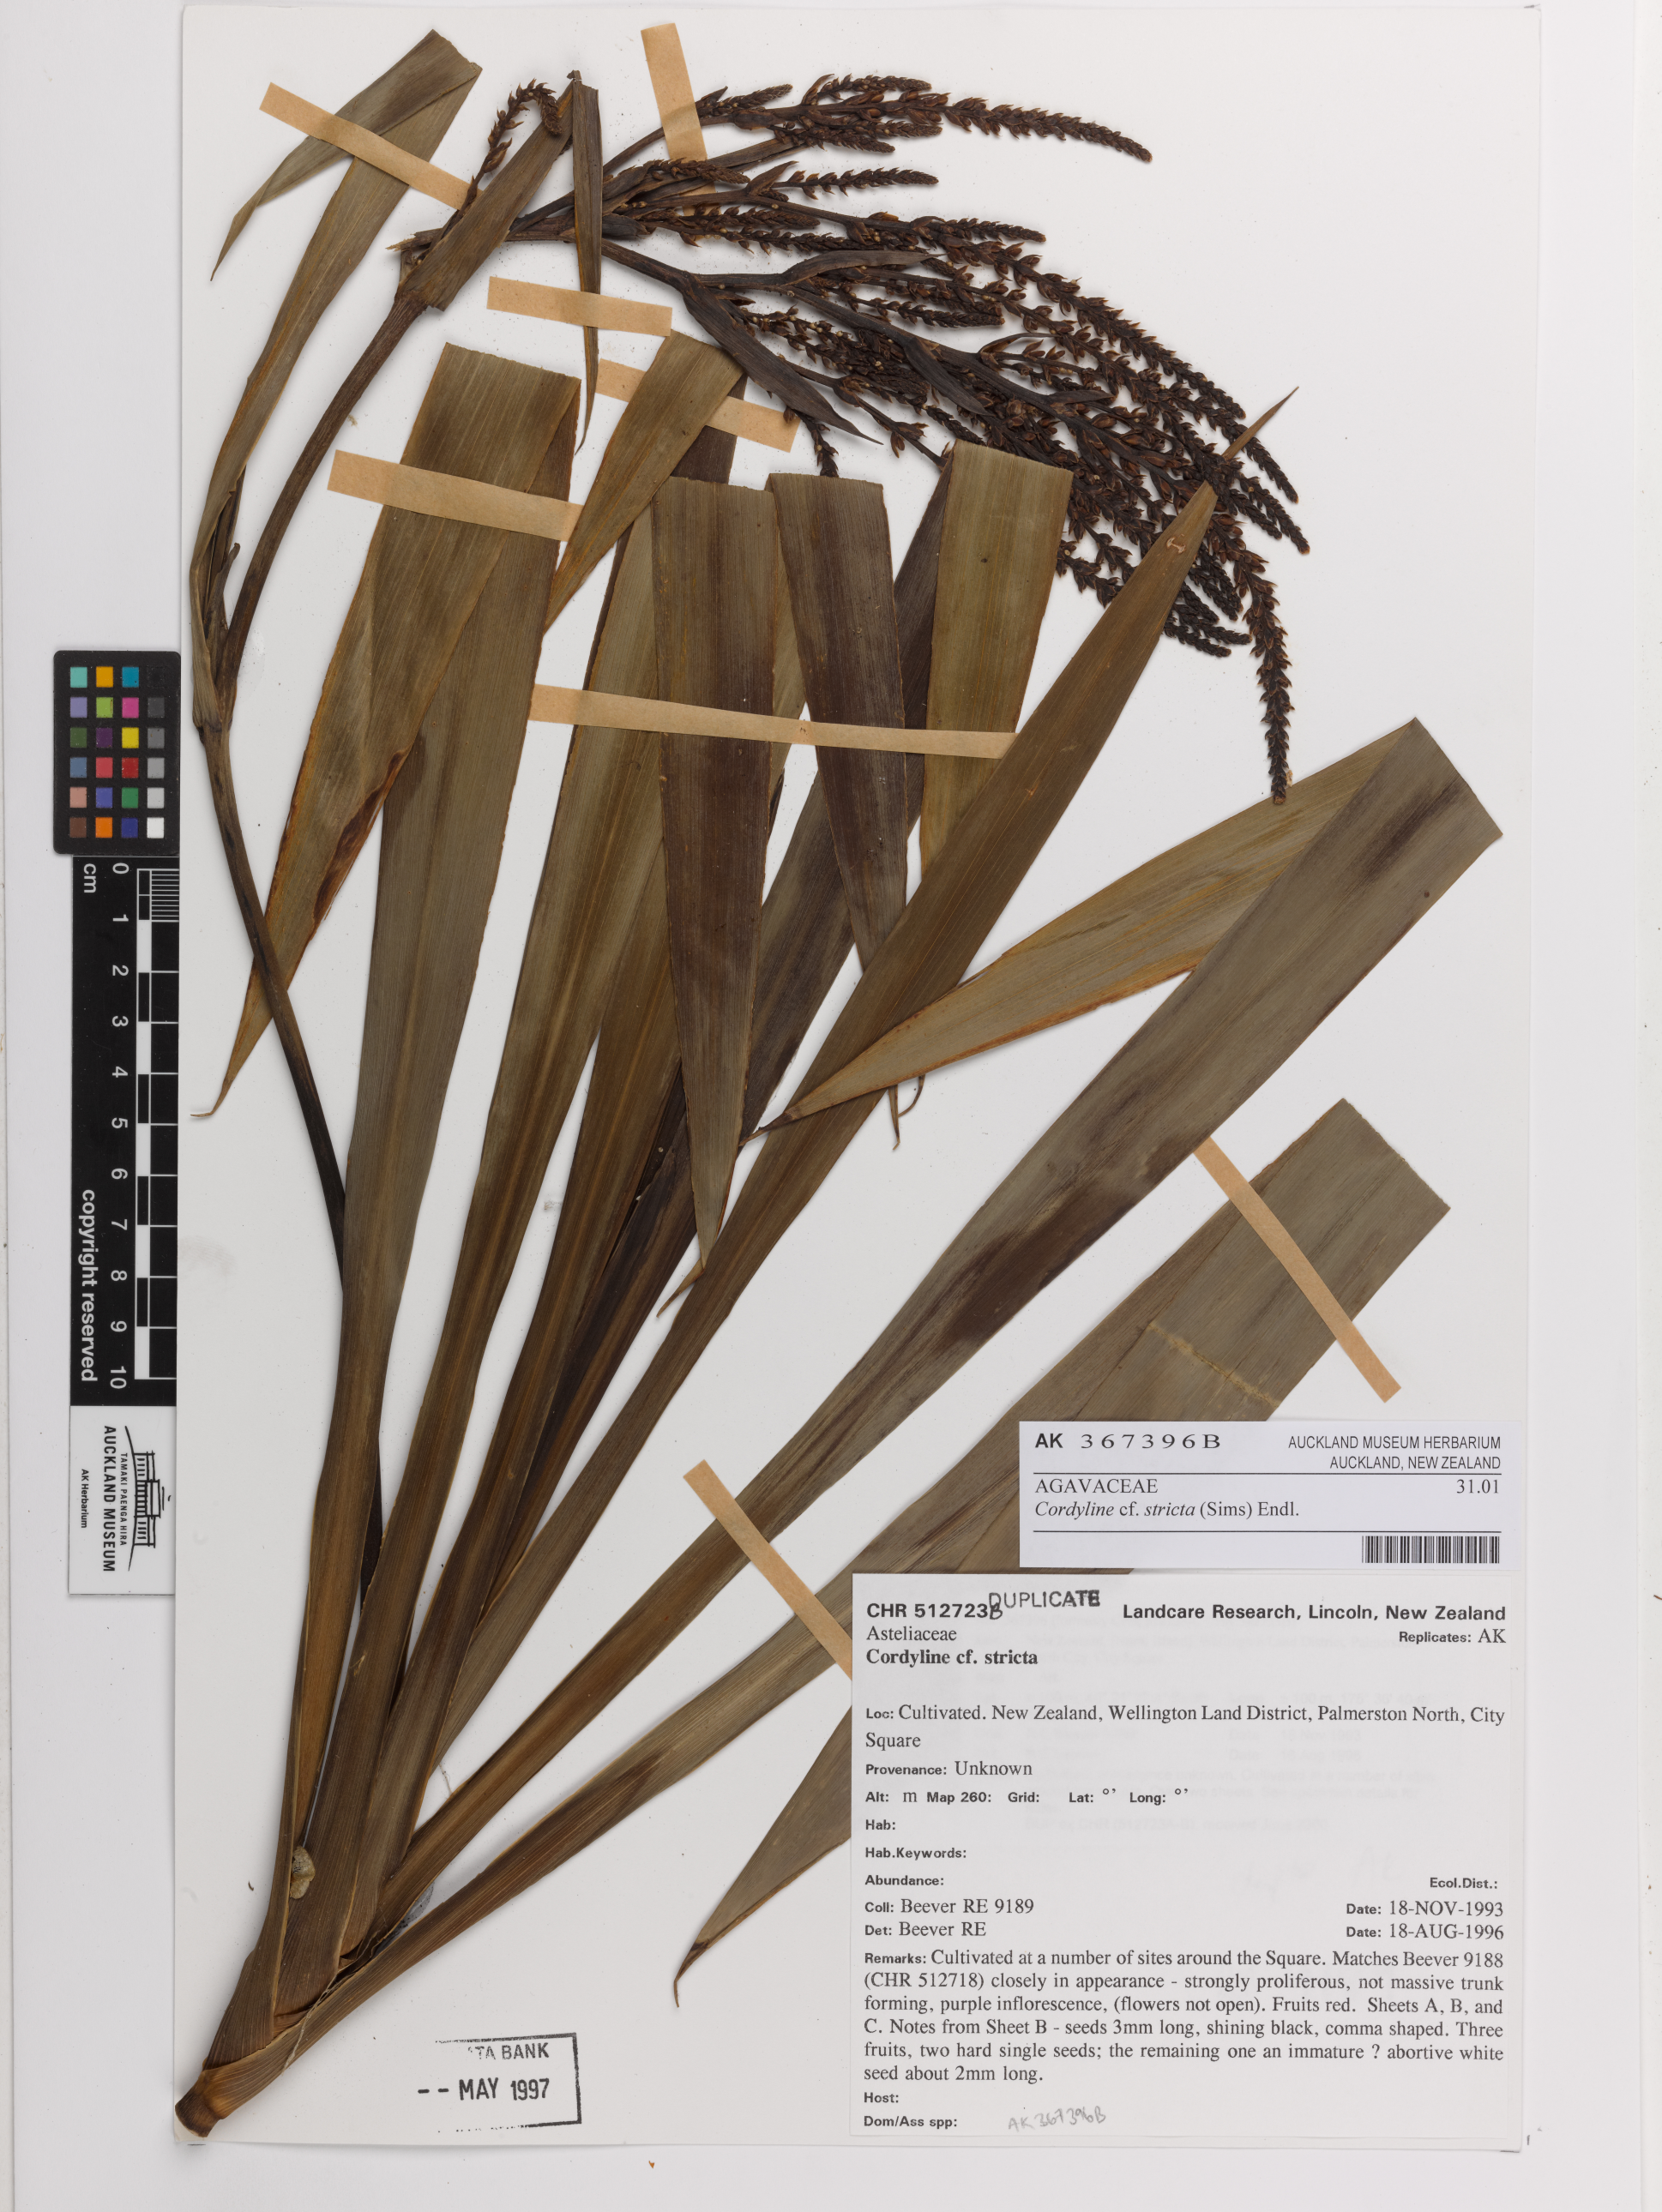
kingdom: Plantae
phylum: Tracheophyta
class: Liliopsida
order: Asparagales
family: Asparagaceae
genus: Cordyline
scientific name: Cordyline stricta
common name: Narrow-leaf palm-lily
